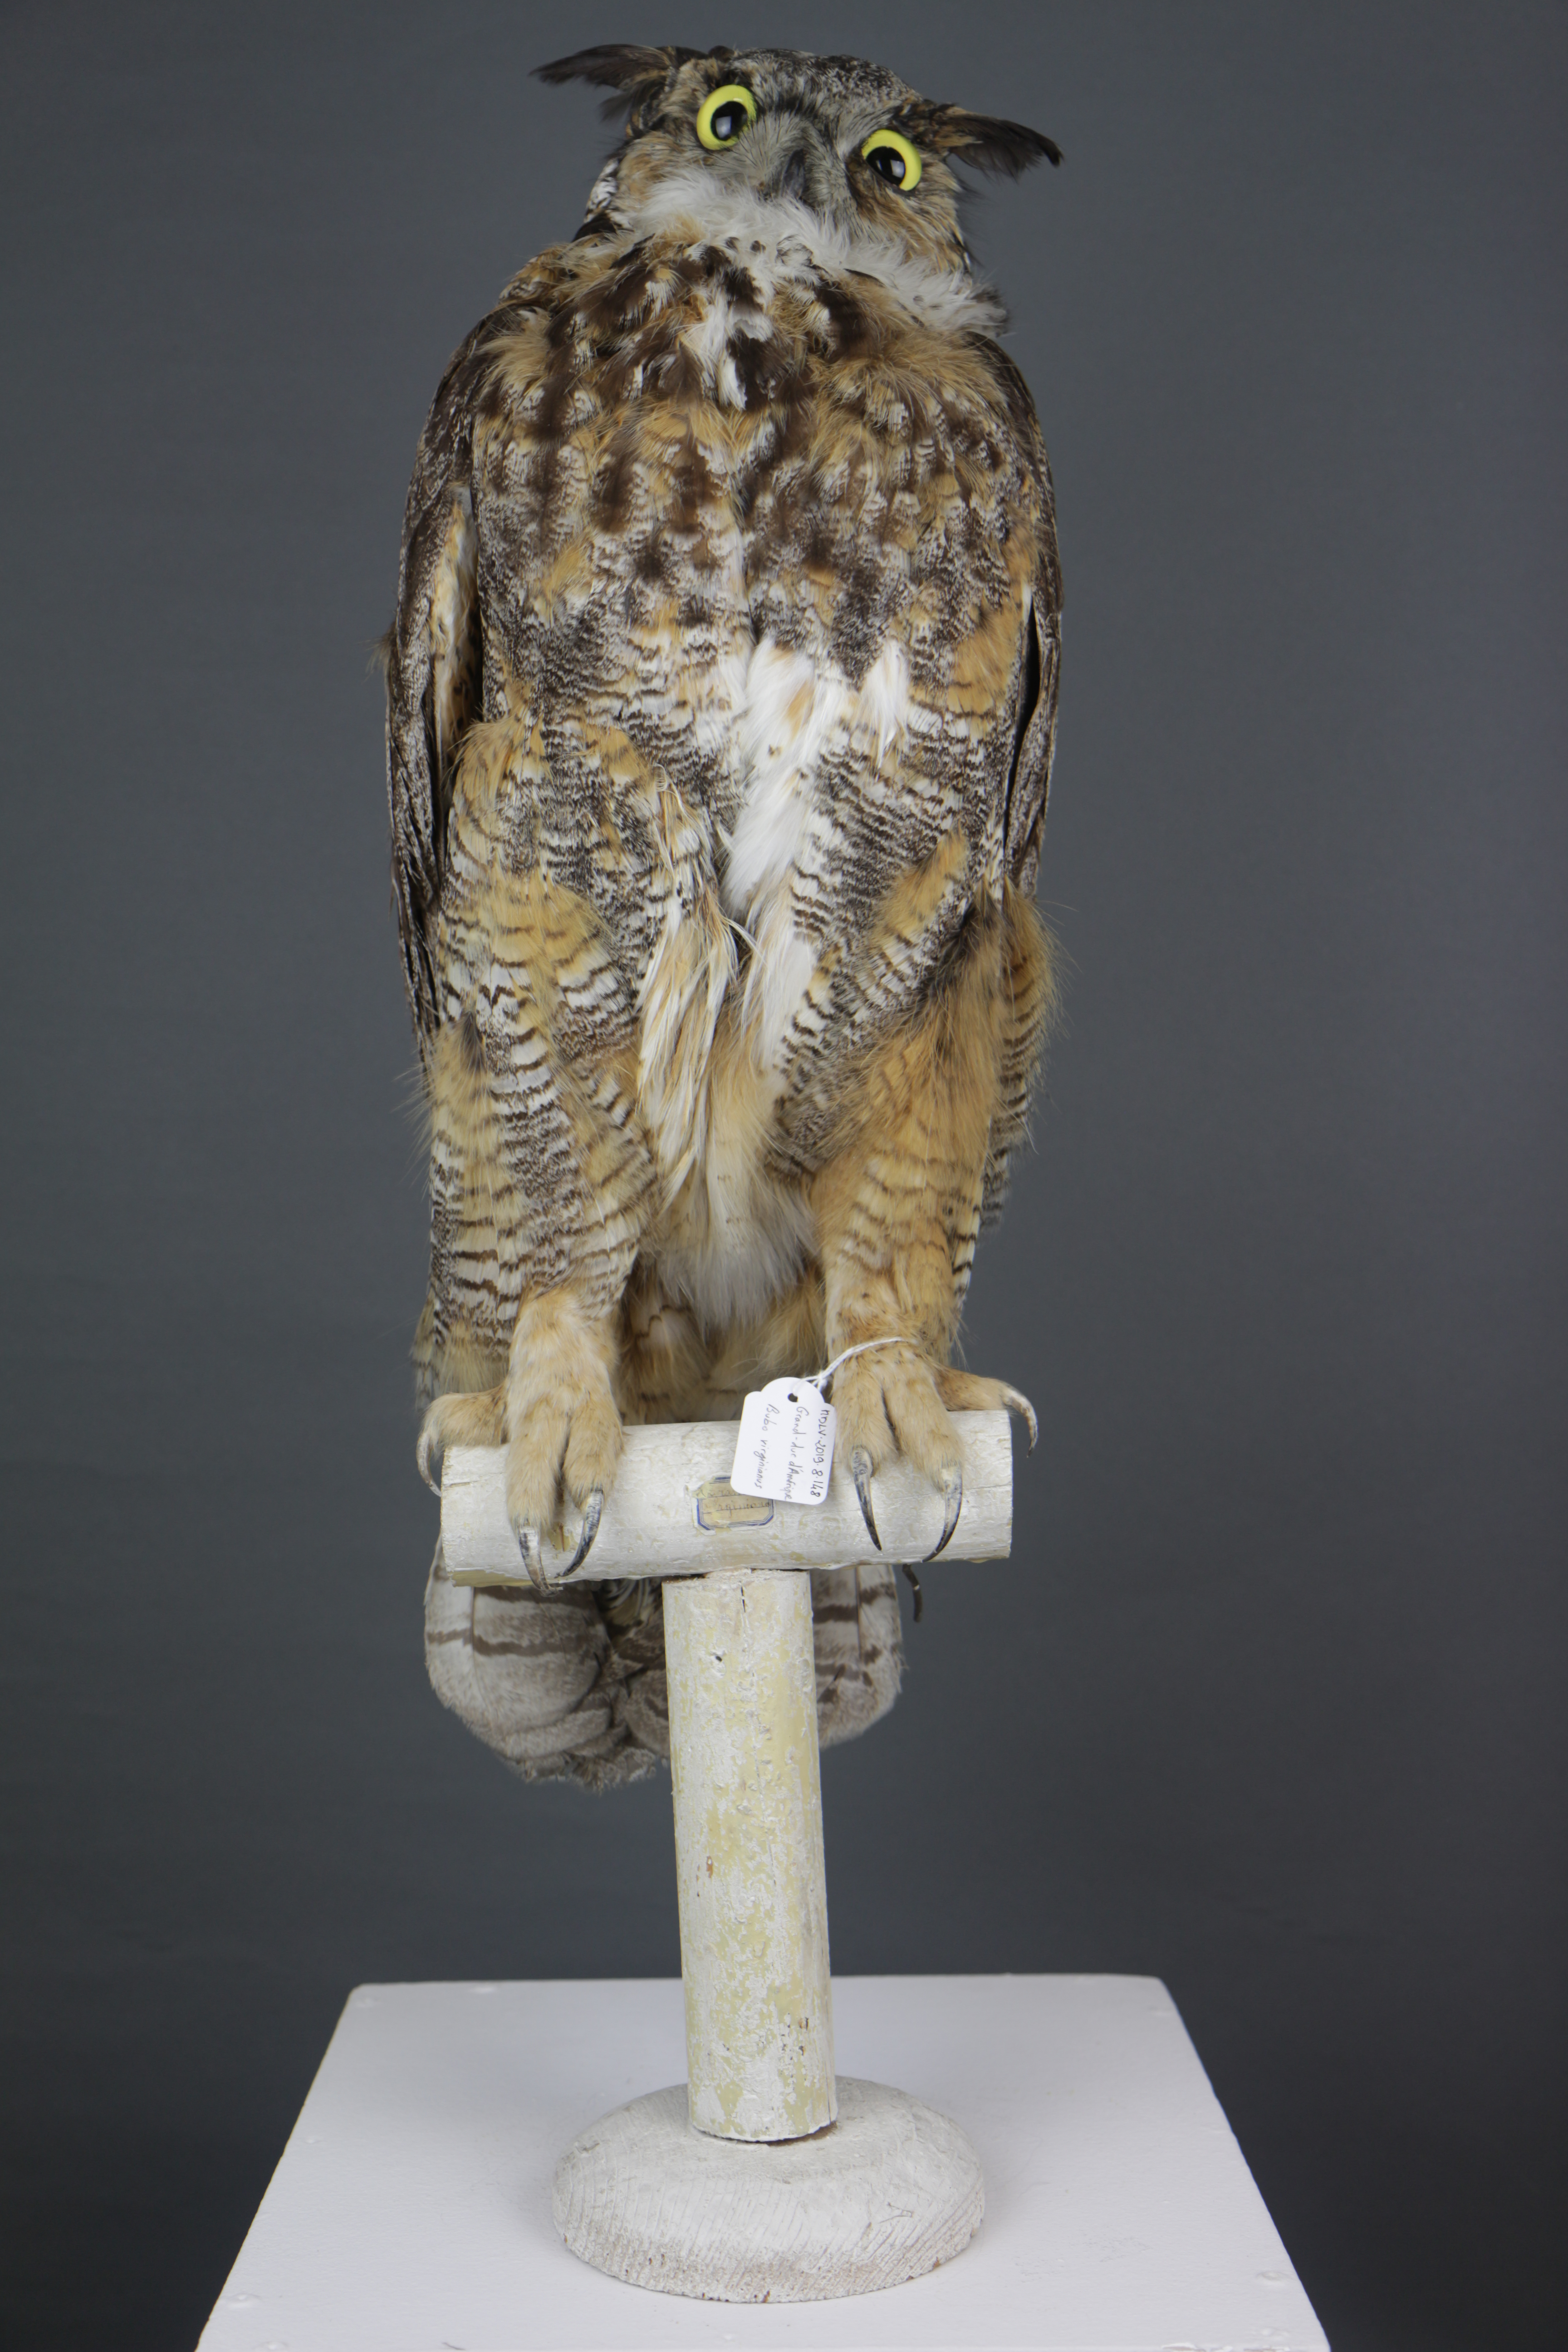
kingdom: Animalia
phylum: Chordata
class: Aves
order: Strigiformes
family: Strigidae
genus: Bubo
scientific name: Bubo virginianus
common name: Great horned owl
